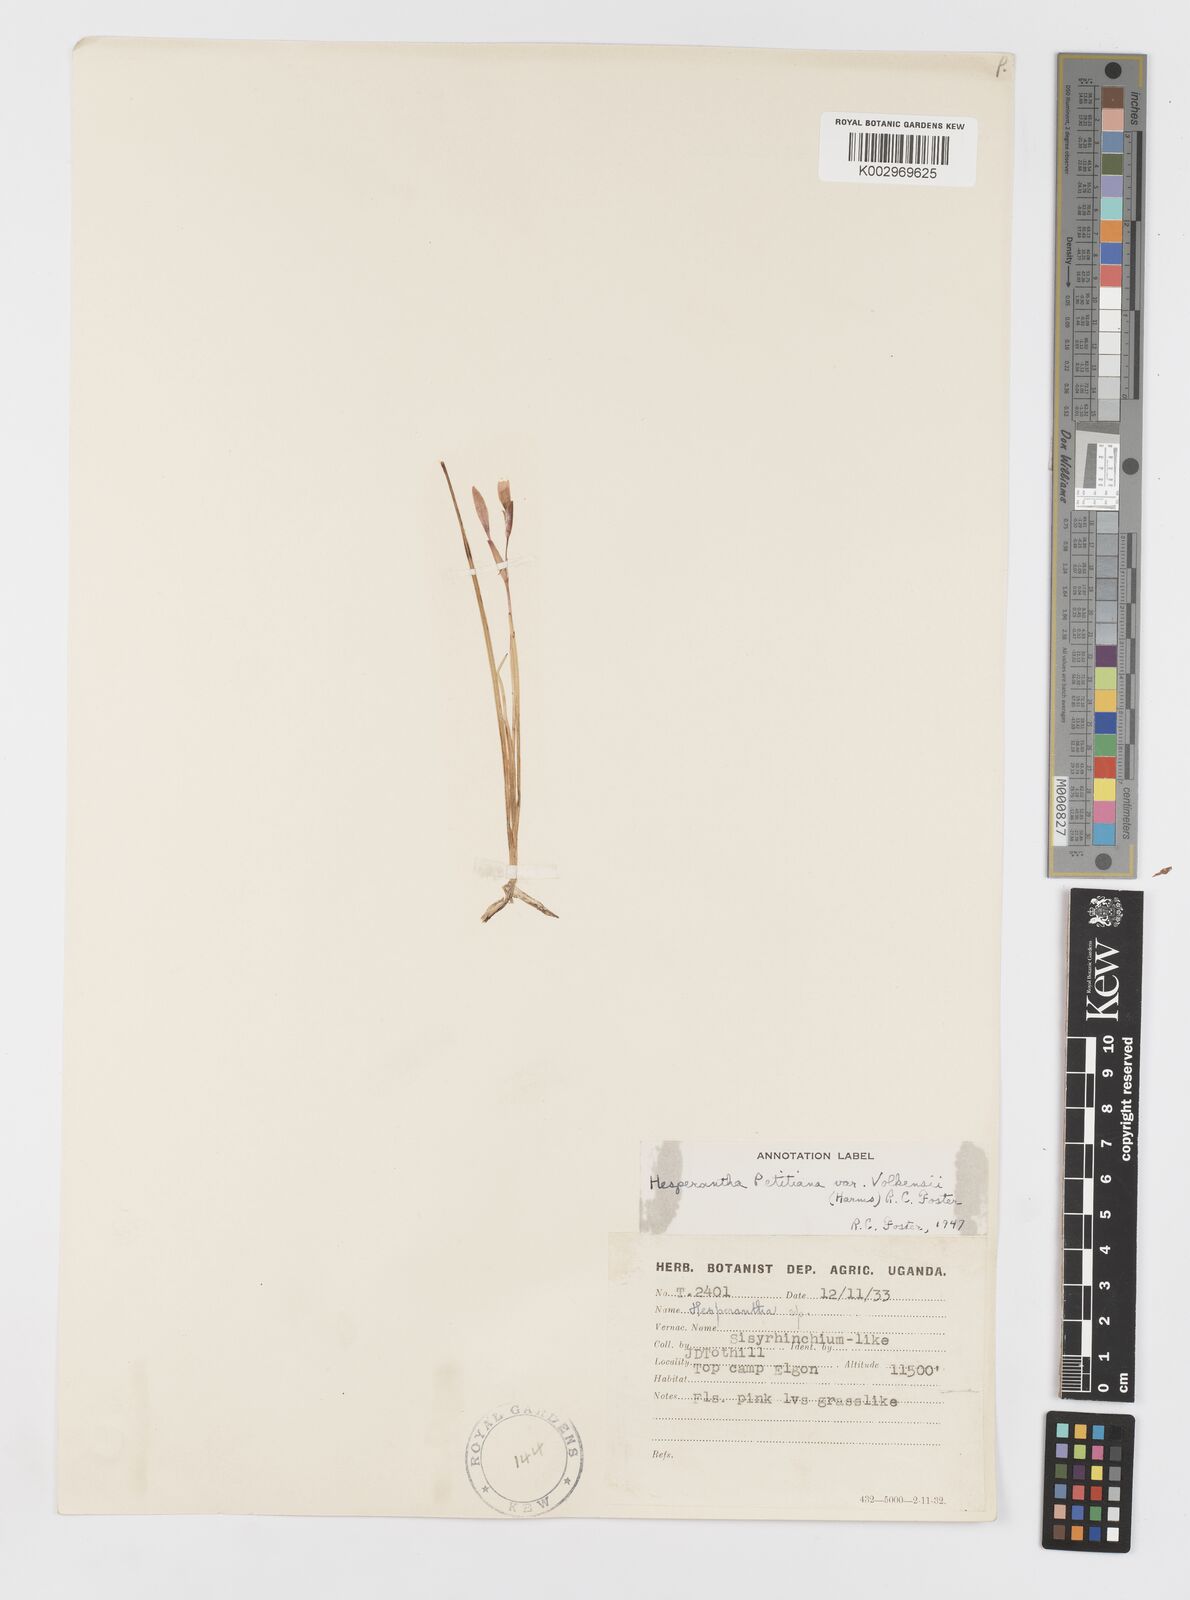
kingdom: Plantae
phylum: Tracheophyta
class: Liliopsida
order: Asparagales
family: Iridaceae
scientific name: Iridaceae
